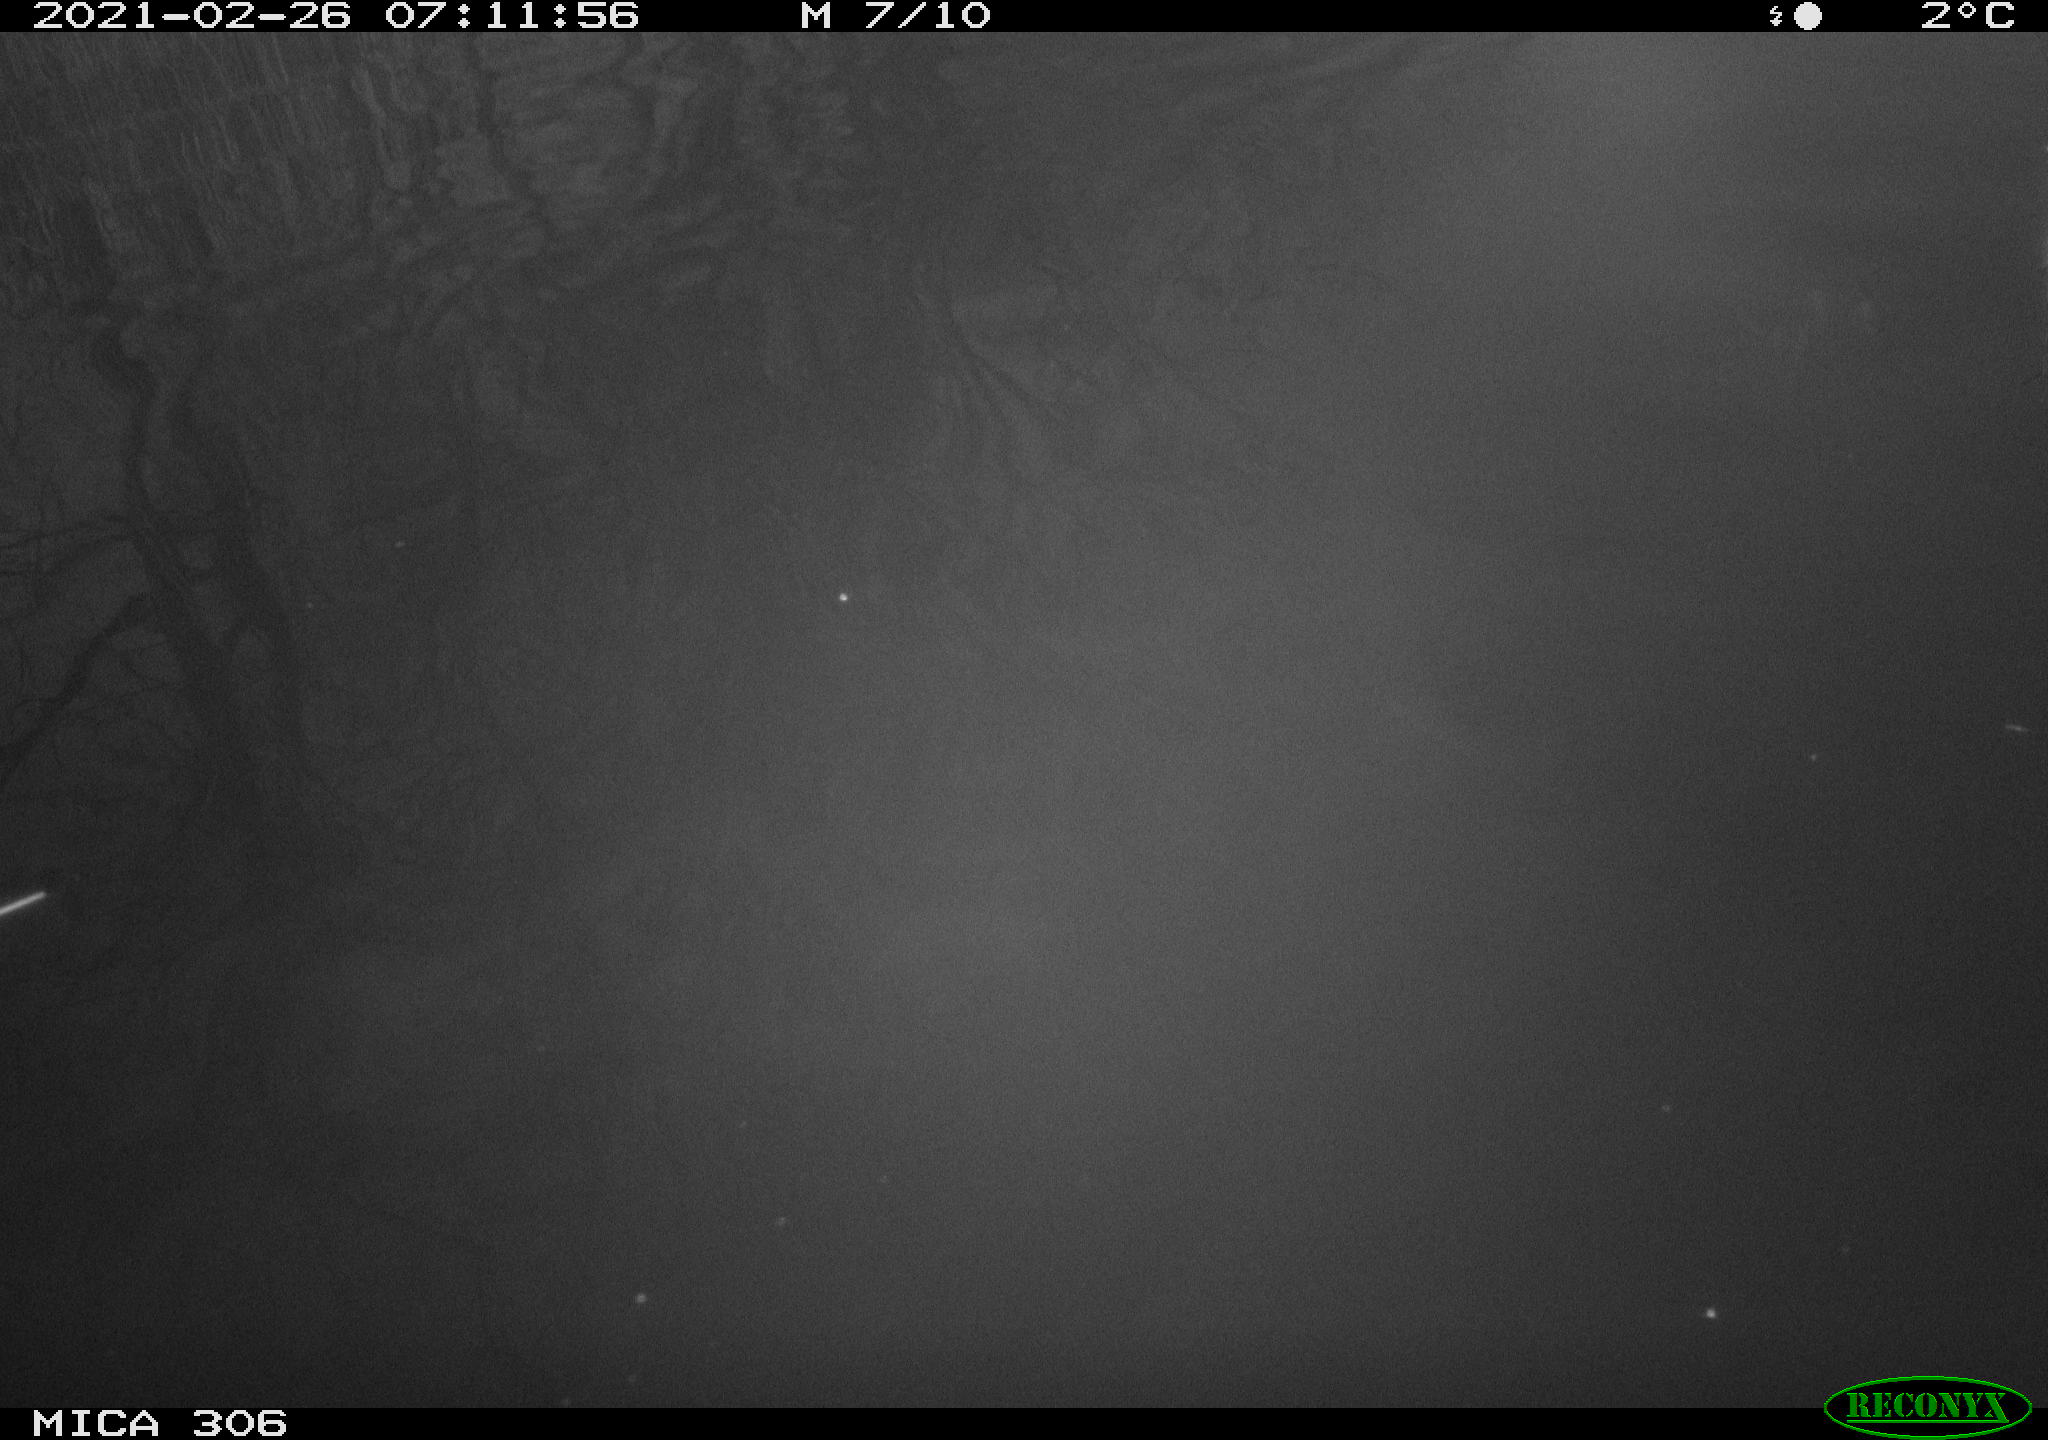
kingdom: Animalia
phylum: Chordata
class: Aves
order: Gruiformes
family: Rallidae
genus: Gallinula
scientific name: Gallinula chloropus
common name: Common moorhen
